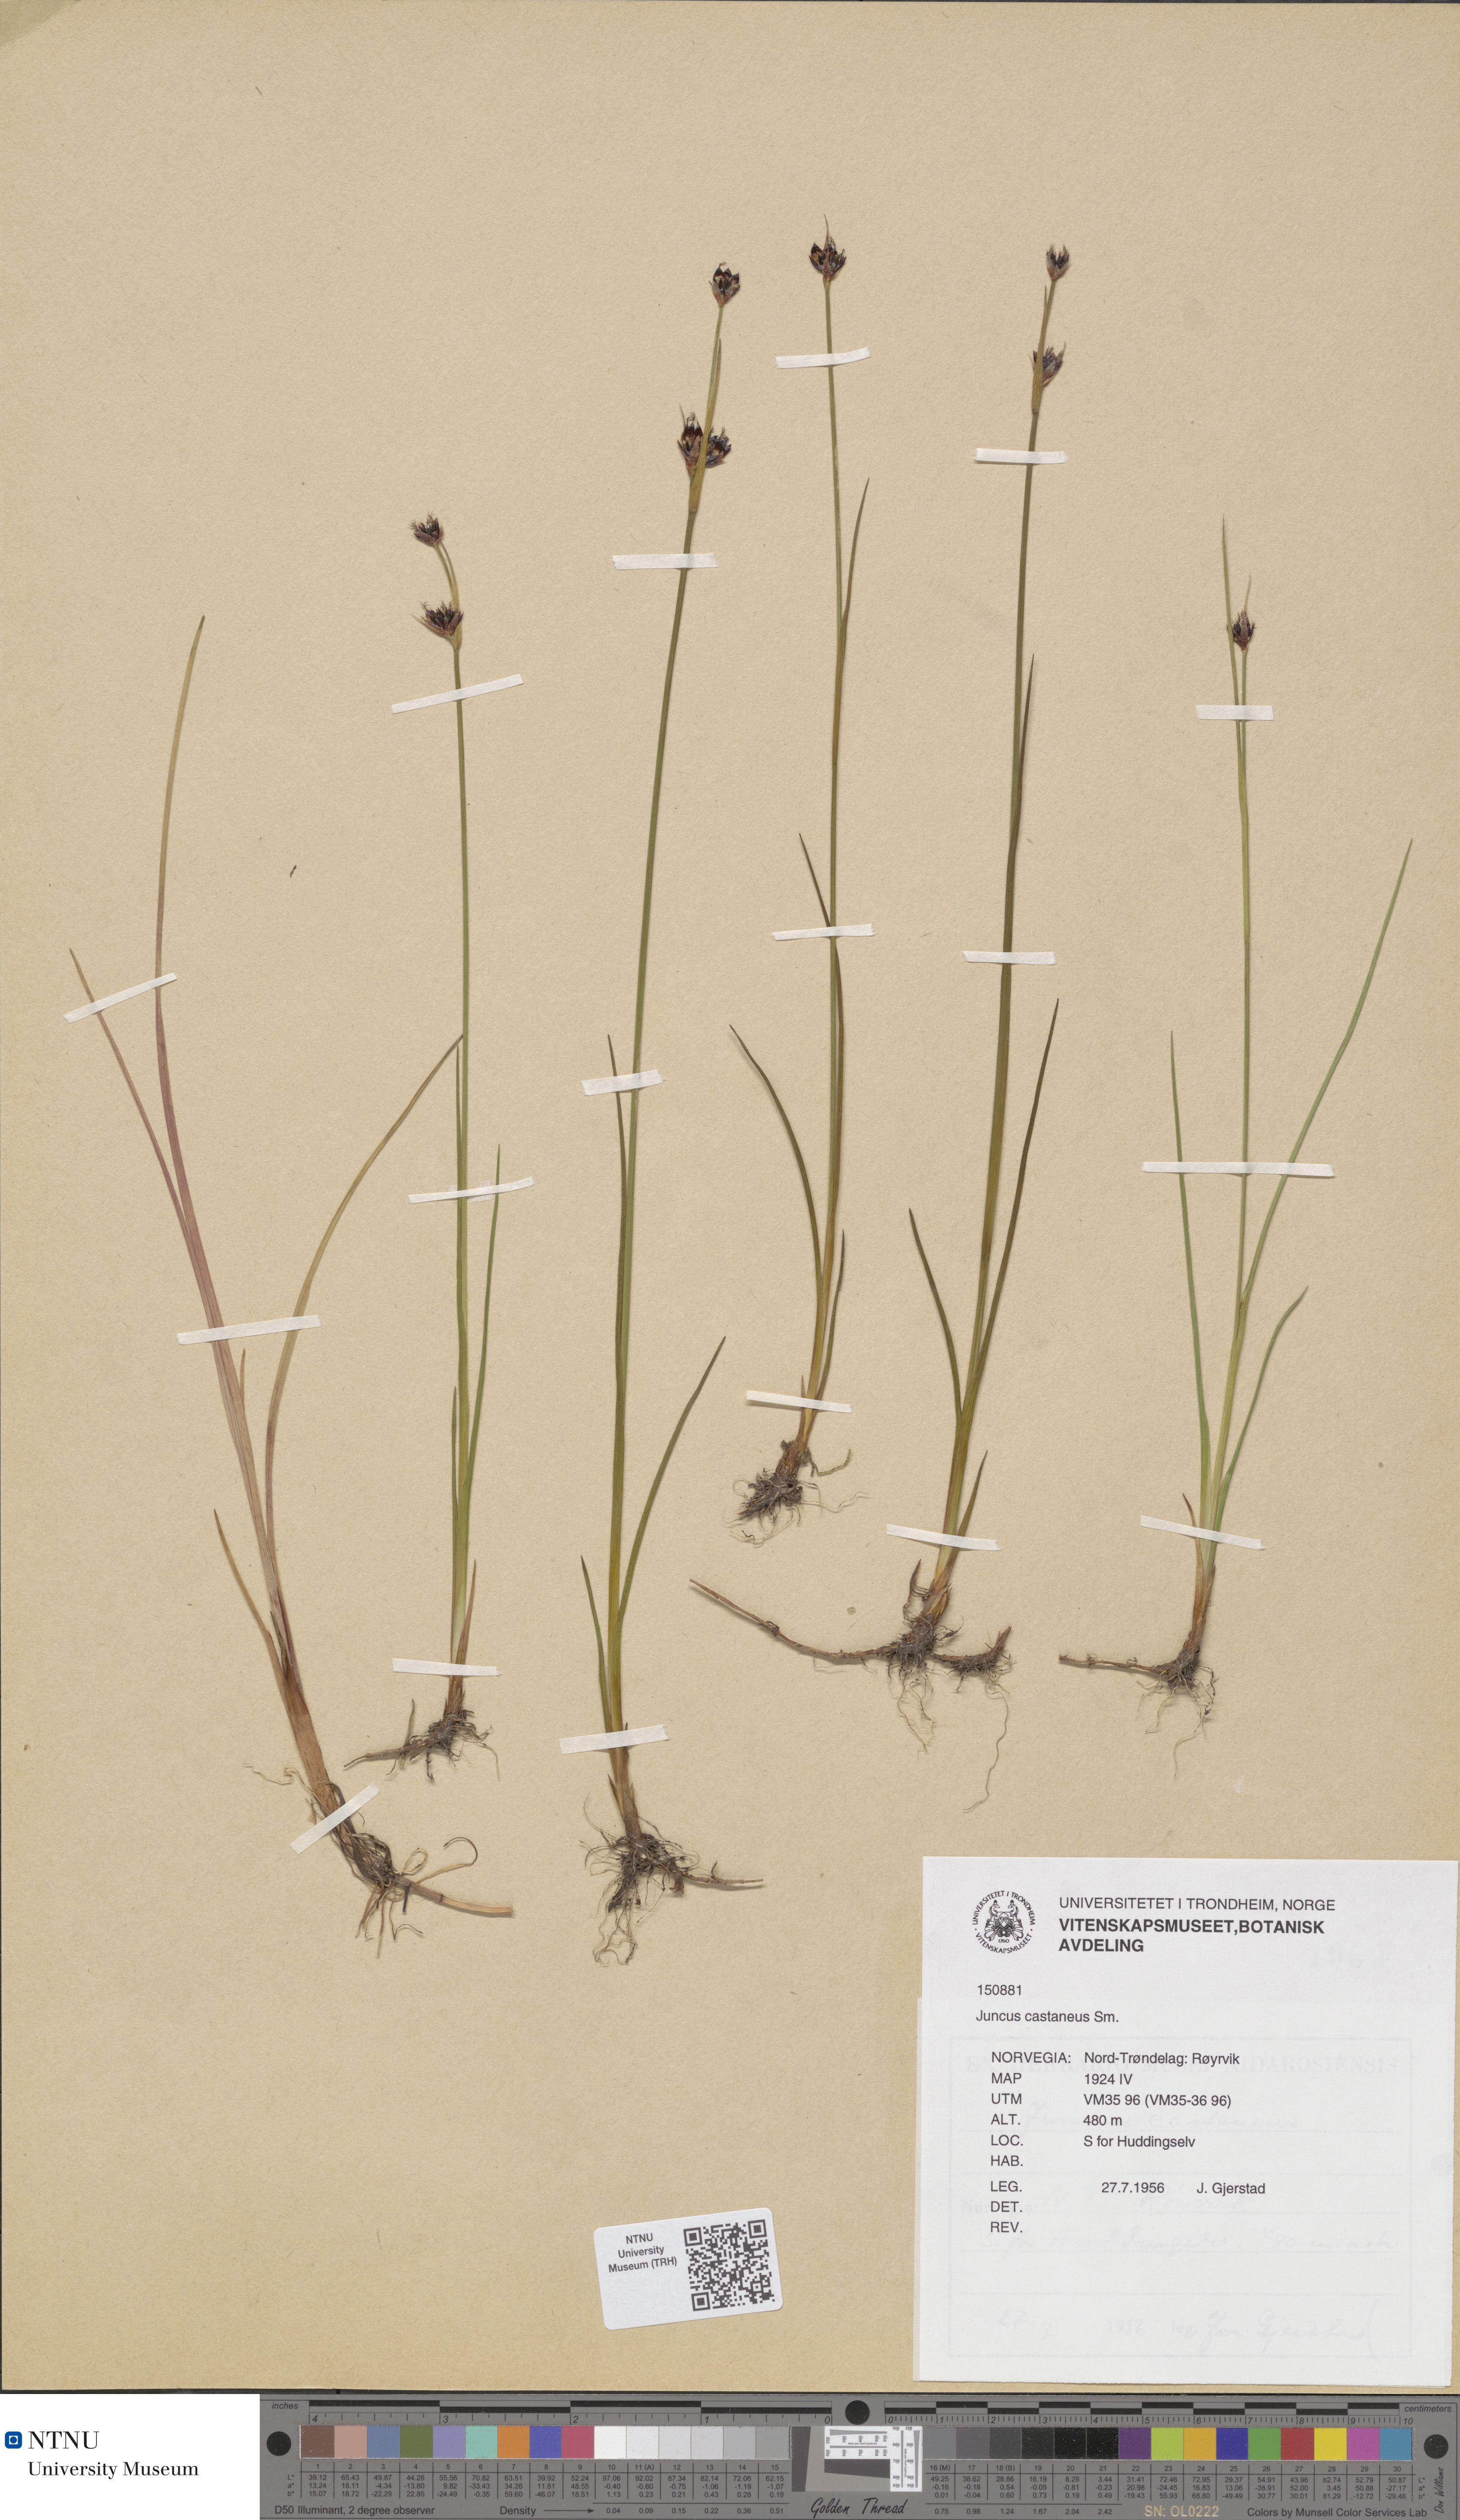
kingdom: Plantae
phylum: Tracheophyta
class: Liliopsida
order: Poales
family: Juncaceae
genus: Juncus
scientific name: Juncus castaneus
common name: Chestnut rush
